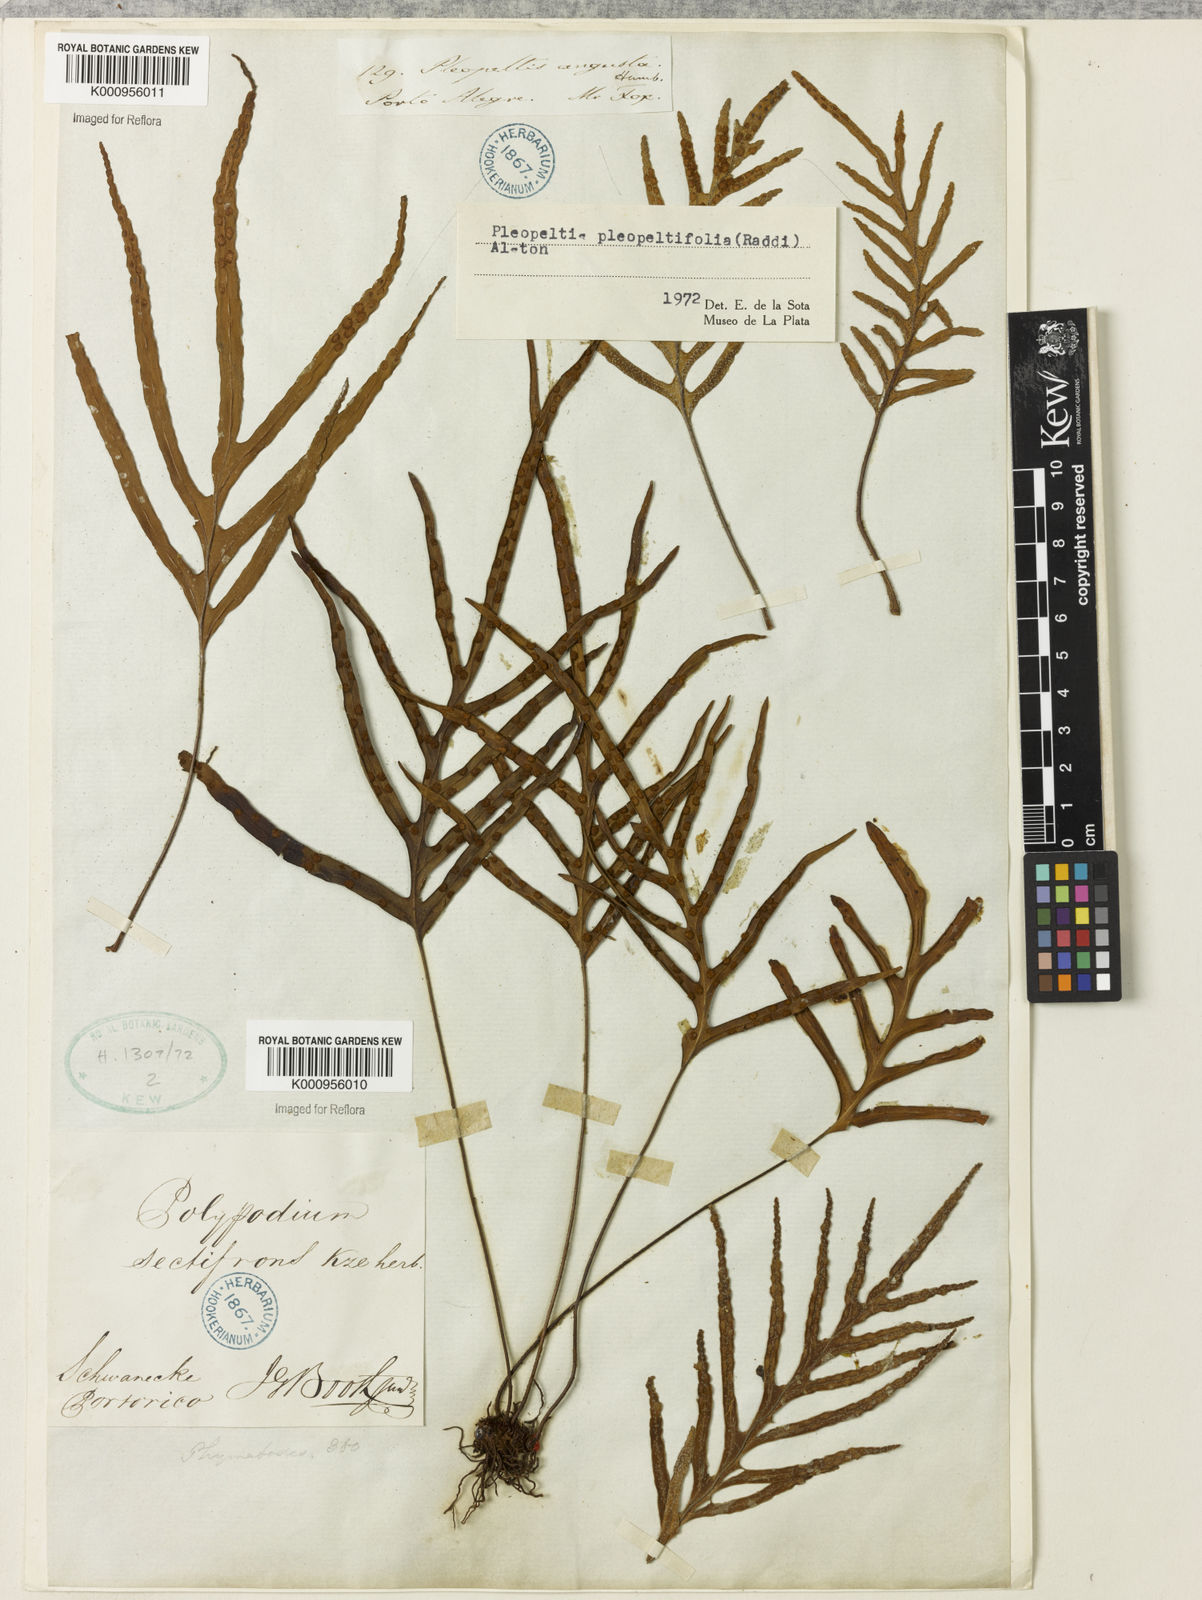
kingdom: Plantae
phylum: Tracheophyta
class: Polypodiopsida
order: Polypodiales
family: Polypodiaceae
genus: Pleopeltis
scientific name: Pleopeltis angusta
